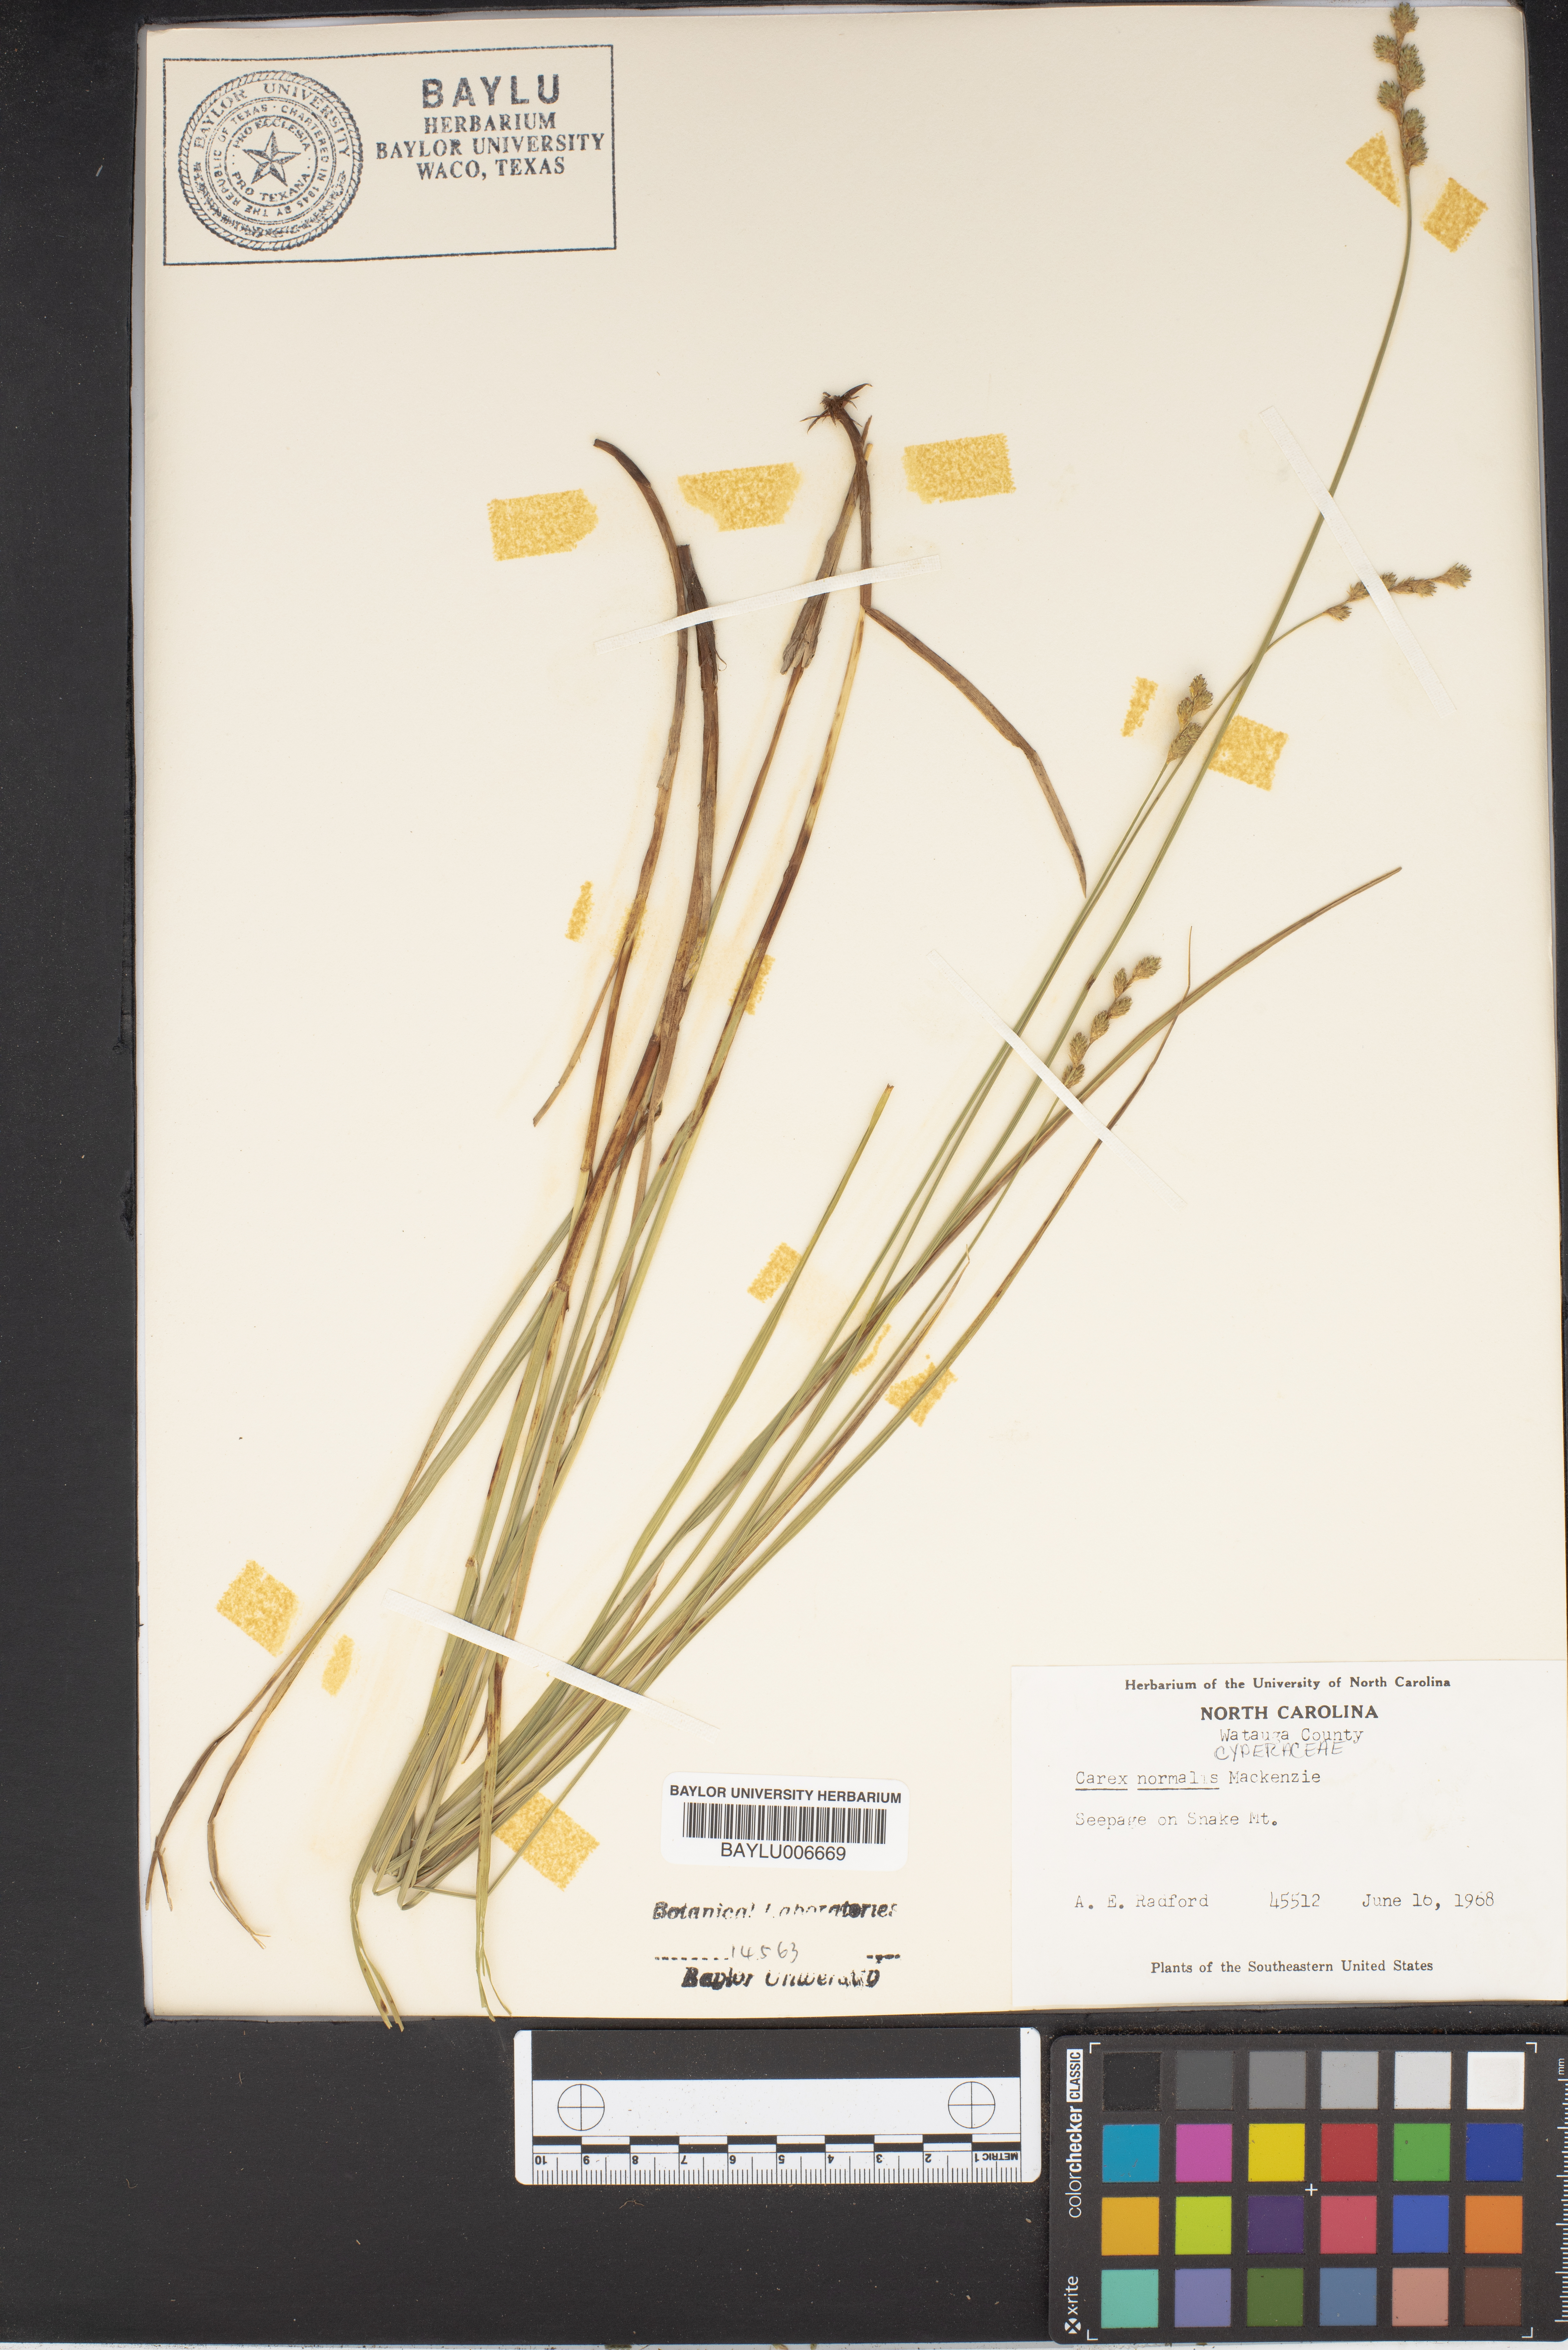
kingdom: Plantae
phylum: Tracheophyta
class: Liliopsida
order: Poales
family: Cyperaceae
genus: Carex
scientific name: Carex normalis
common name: Greater straw sedge
